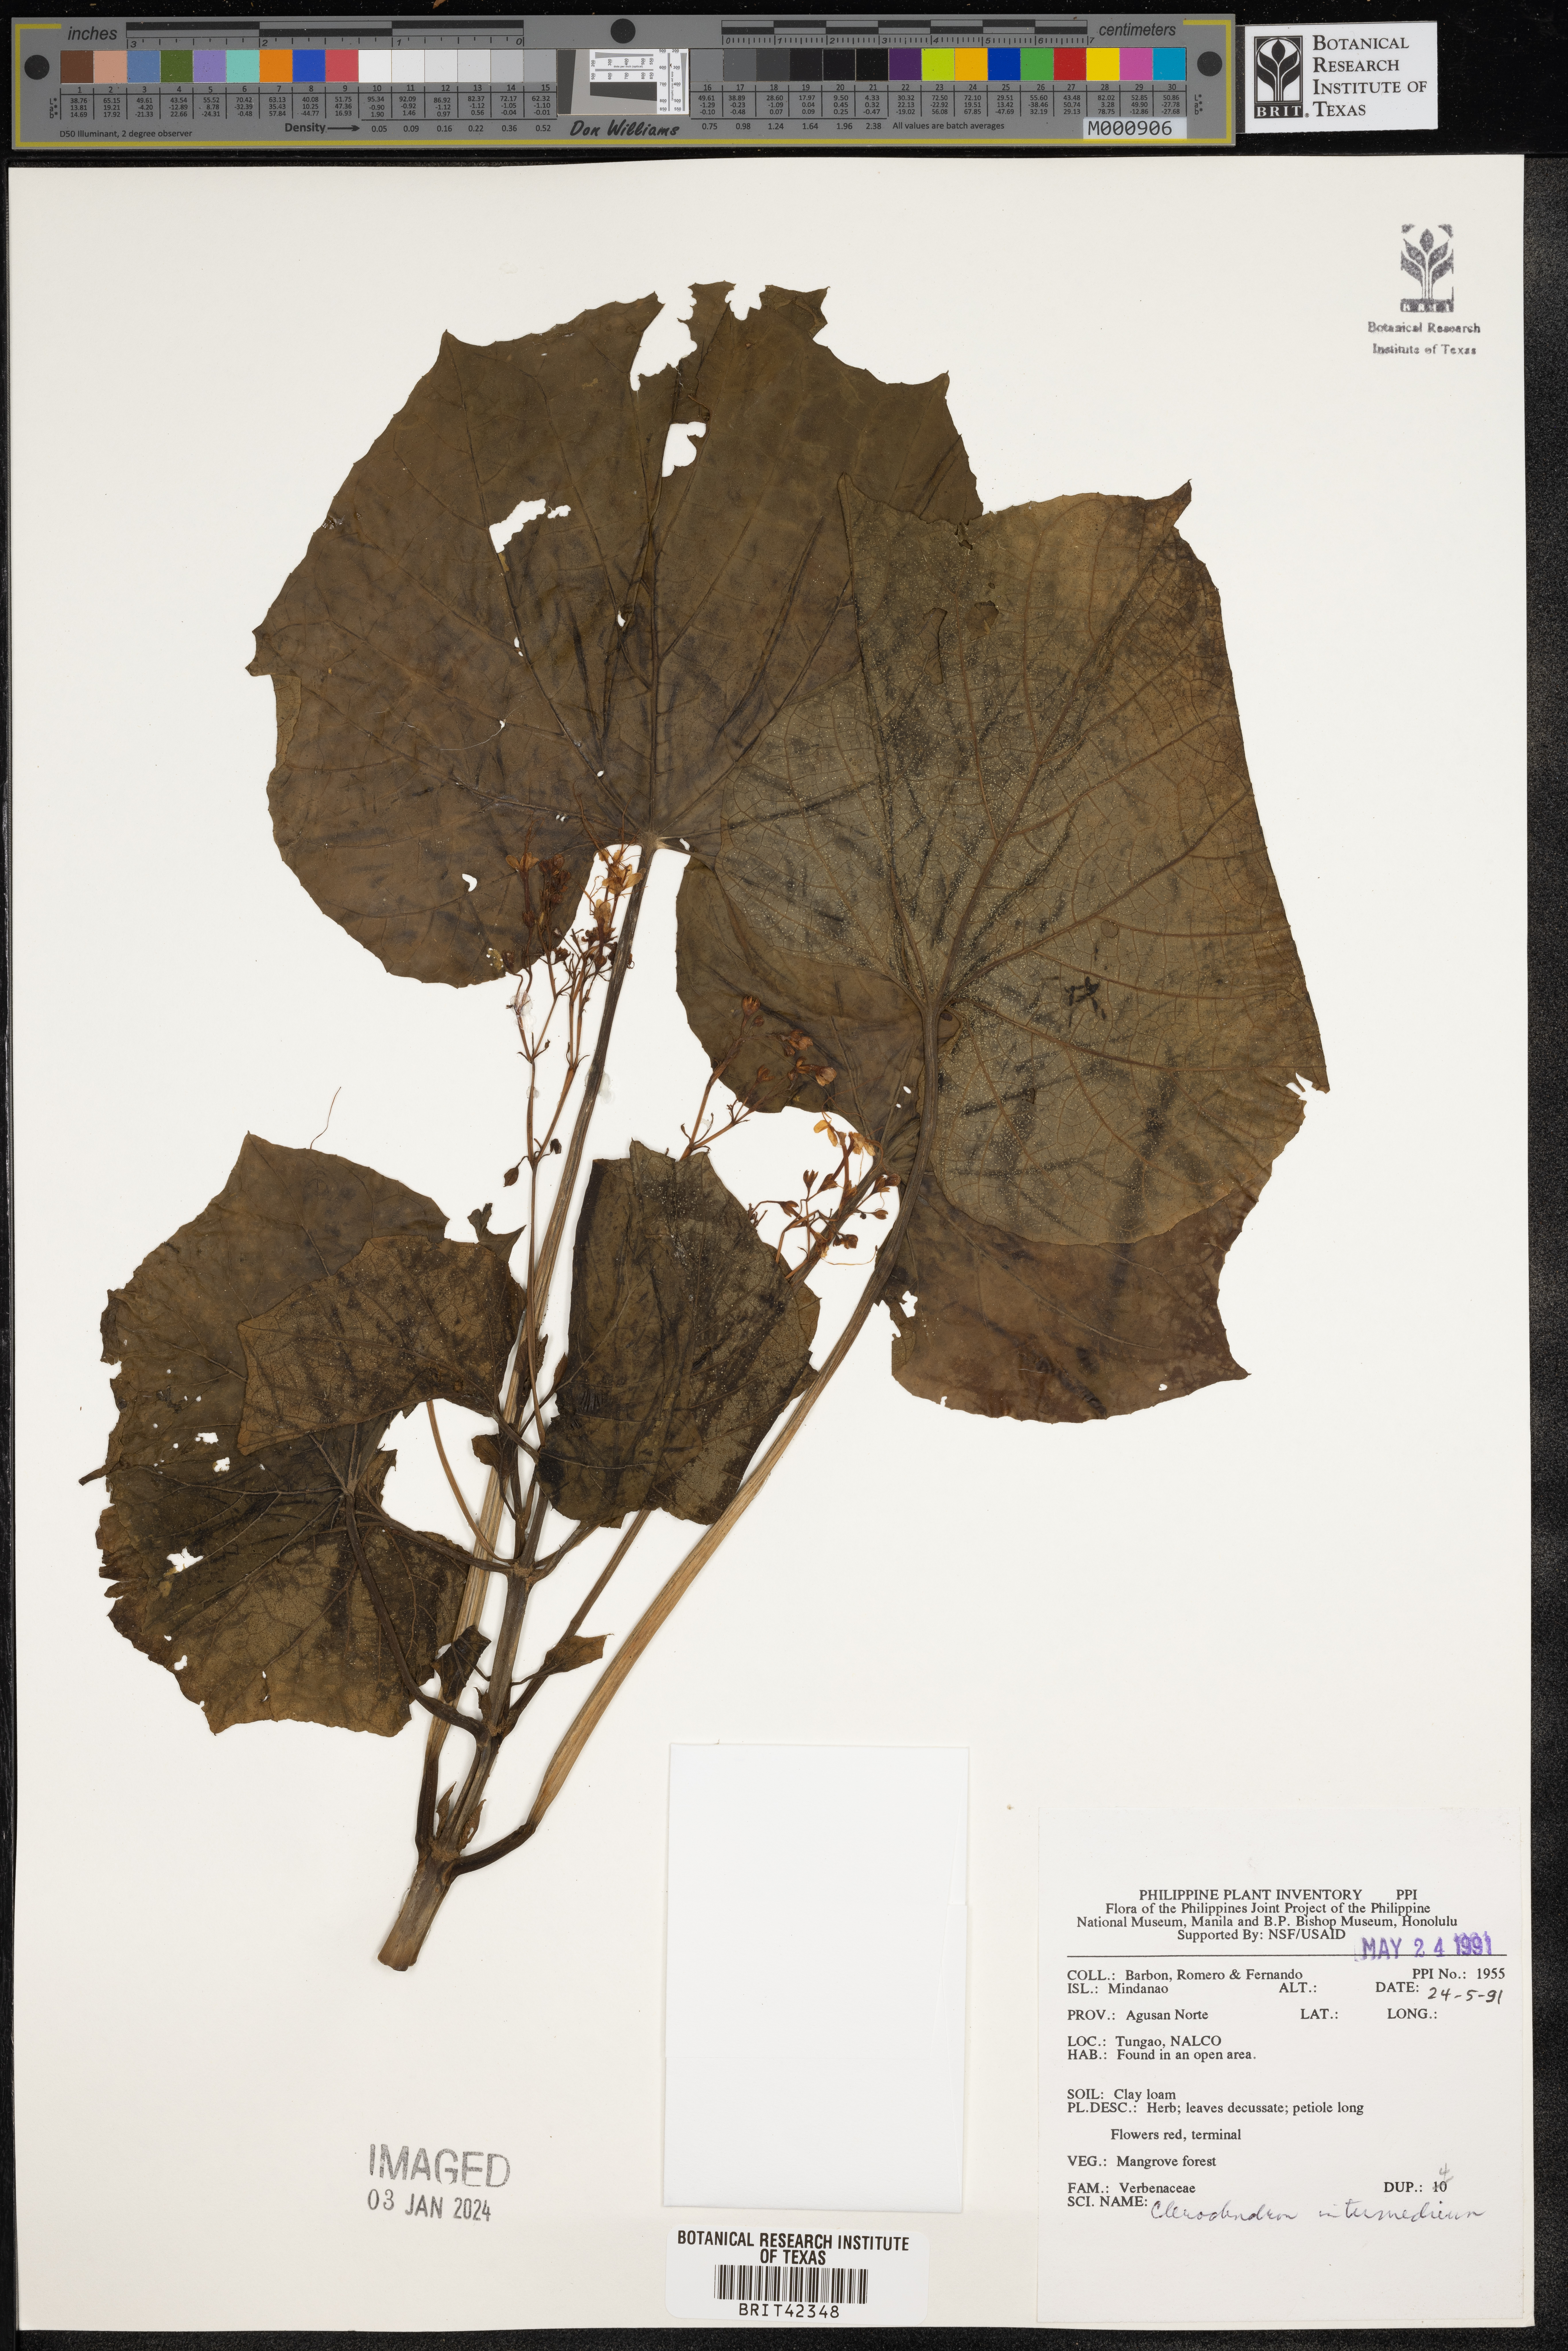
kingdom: Plantae
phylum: Tracheophyta
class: Magnoliopsida
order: Lamiales
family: Lamiaceae
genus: Clerodendrum
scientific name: Clerodendrum intermedium
